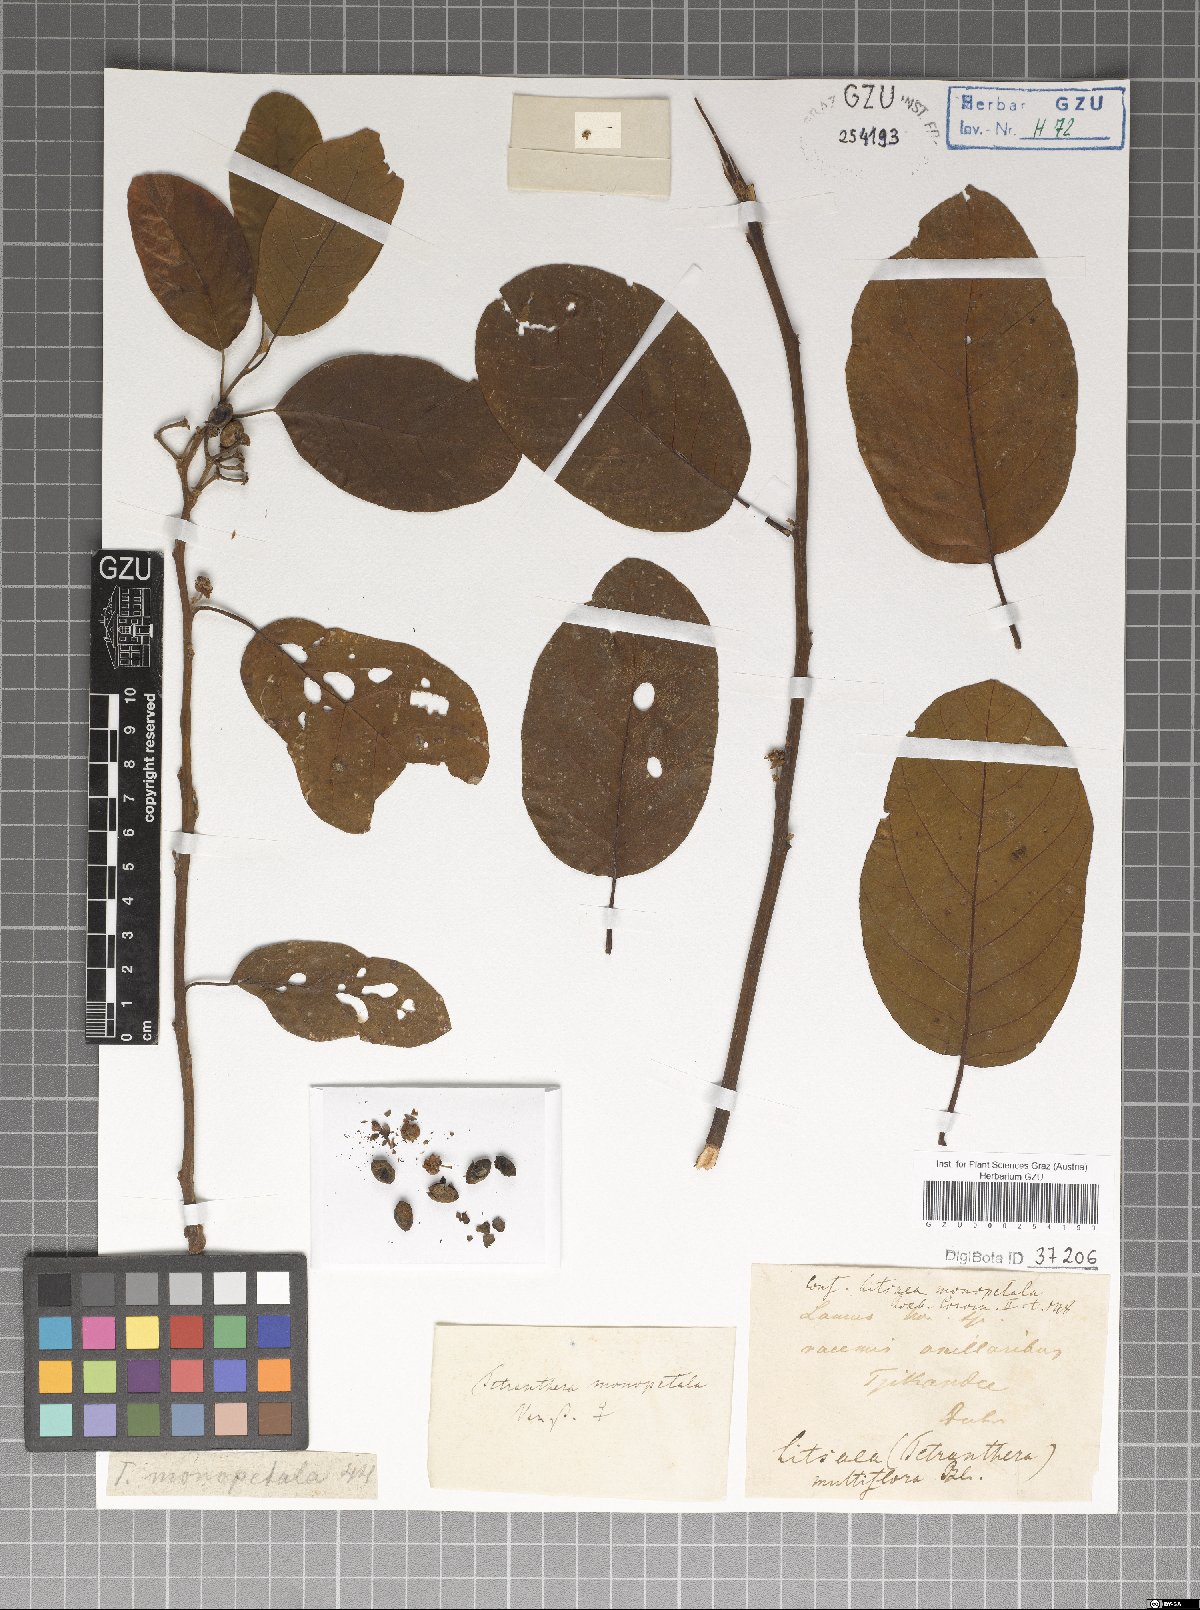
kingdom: Plantae
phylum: Tracheophyta
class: Magnoliopsida
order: Laurales
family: Lauraceae
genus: Litsea
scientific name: Litsea monopetala
